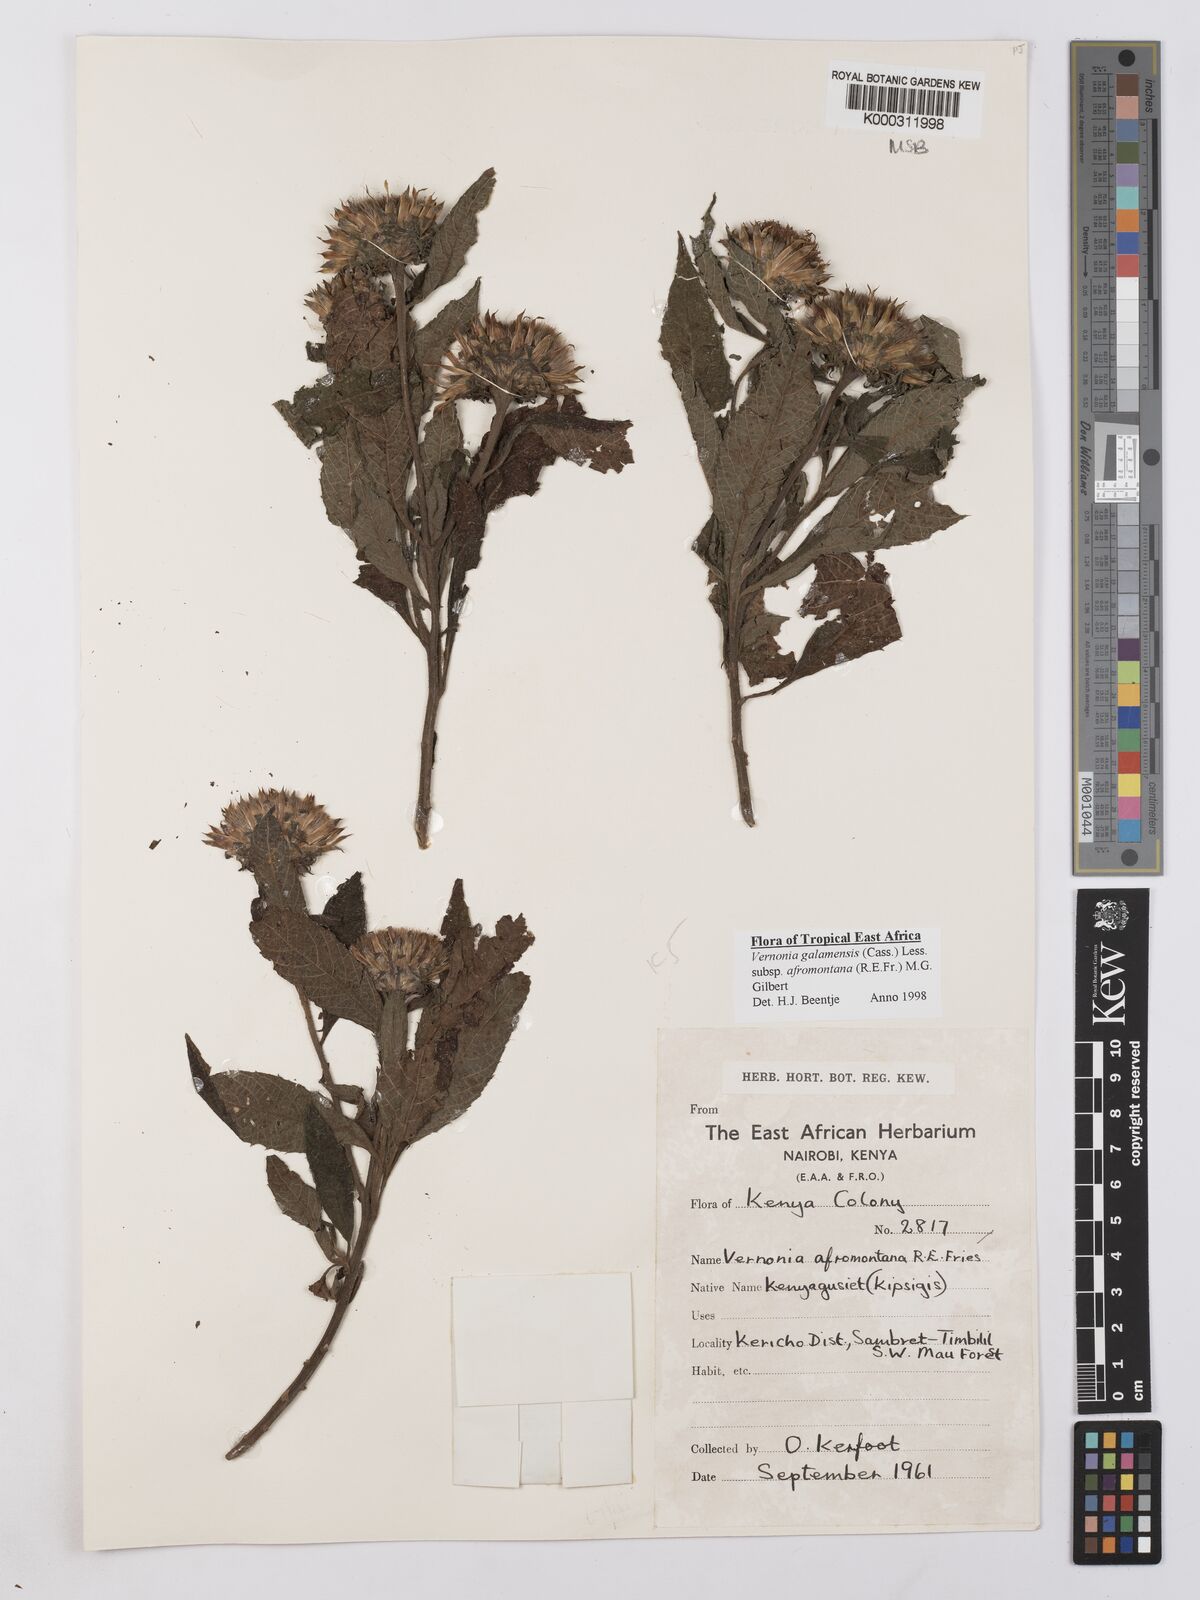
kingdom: Plantae
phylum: Tracheophyta
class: Magnoliopsida
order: Asterales
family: Asteraceae
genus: Vernonia
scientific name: Vernonia galamensis
